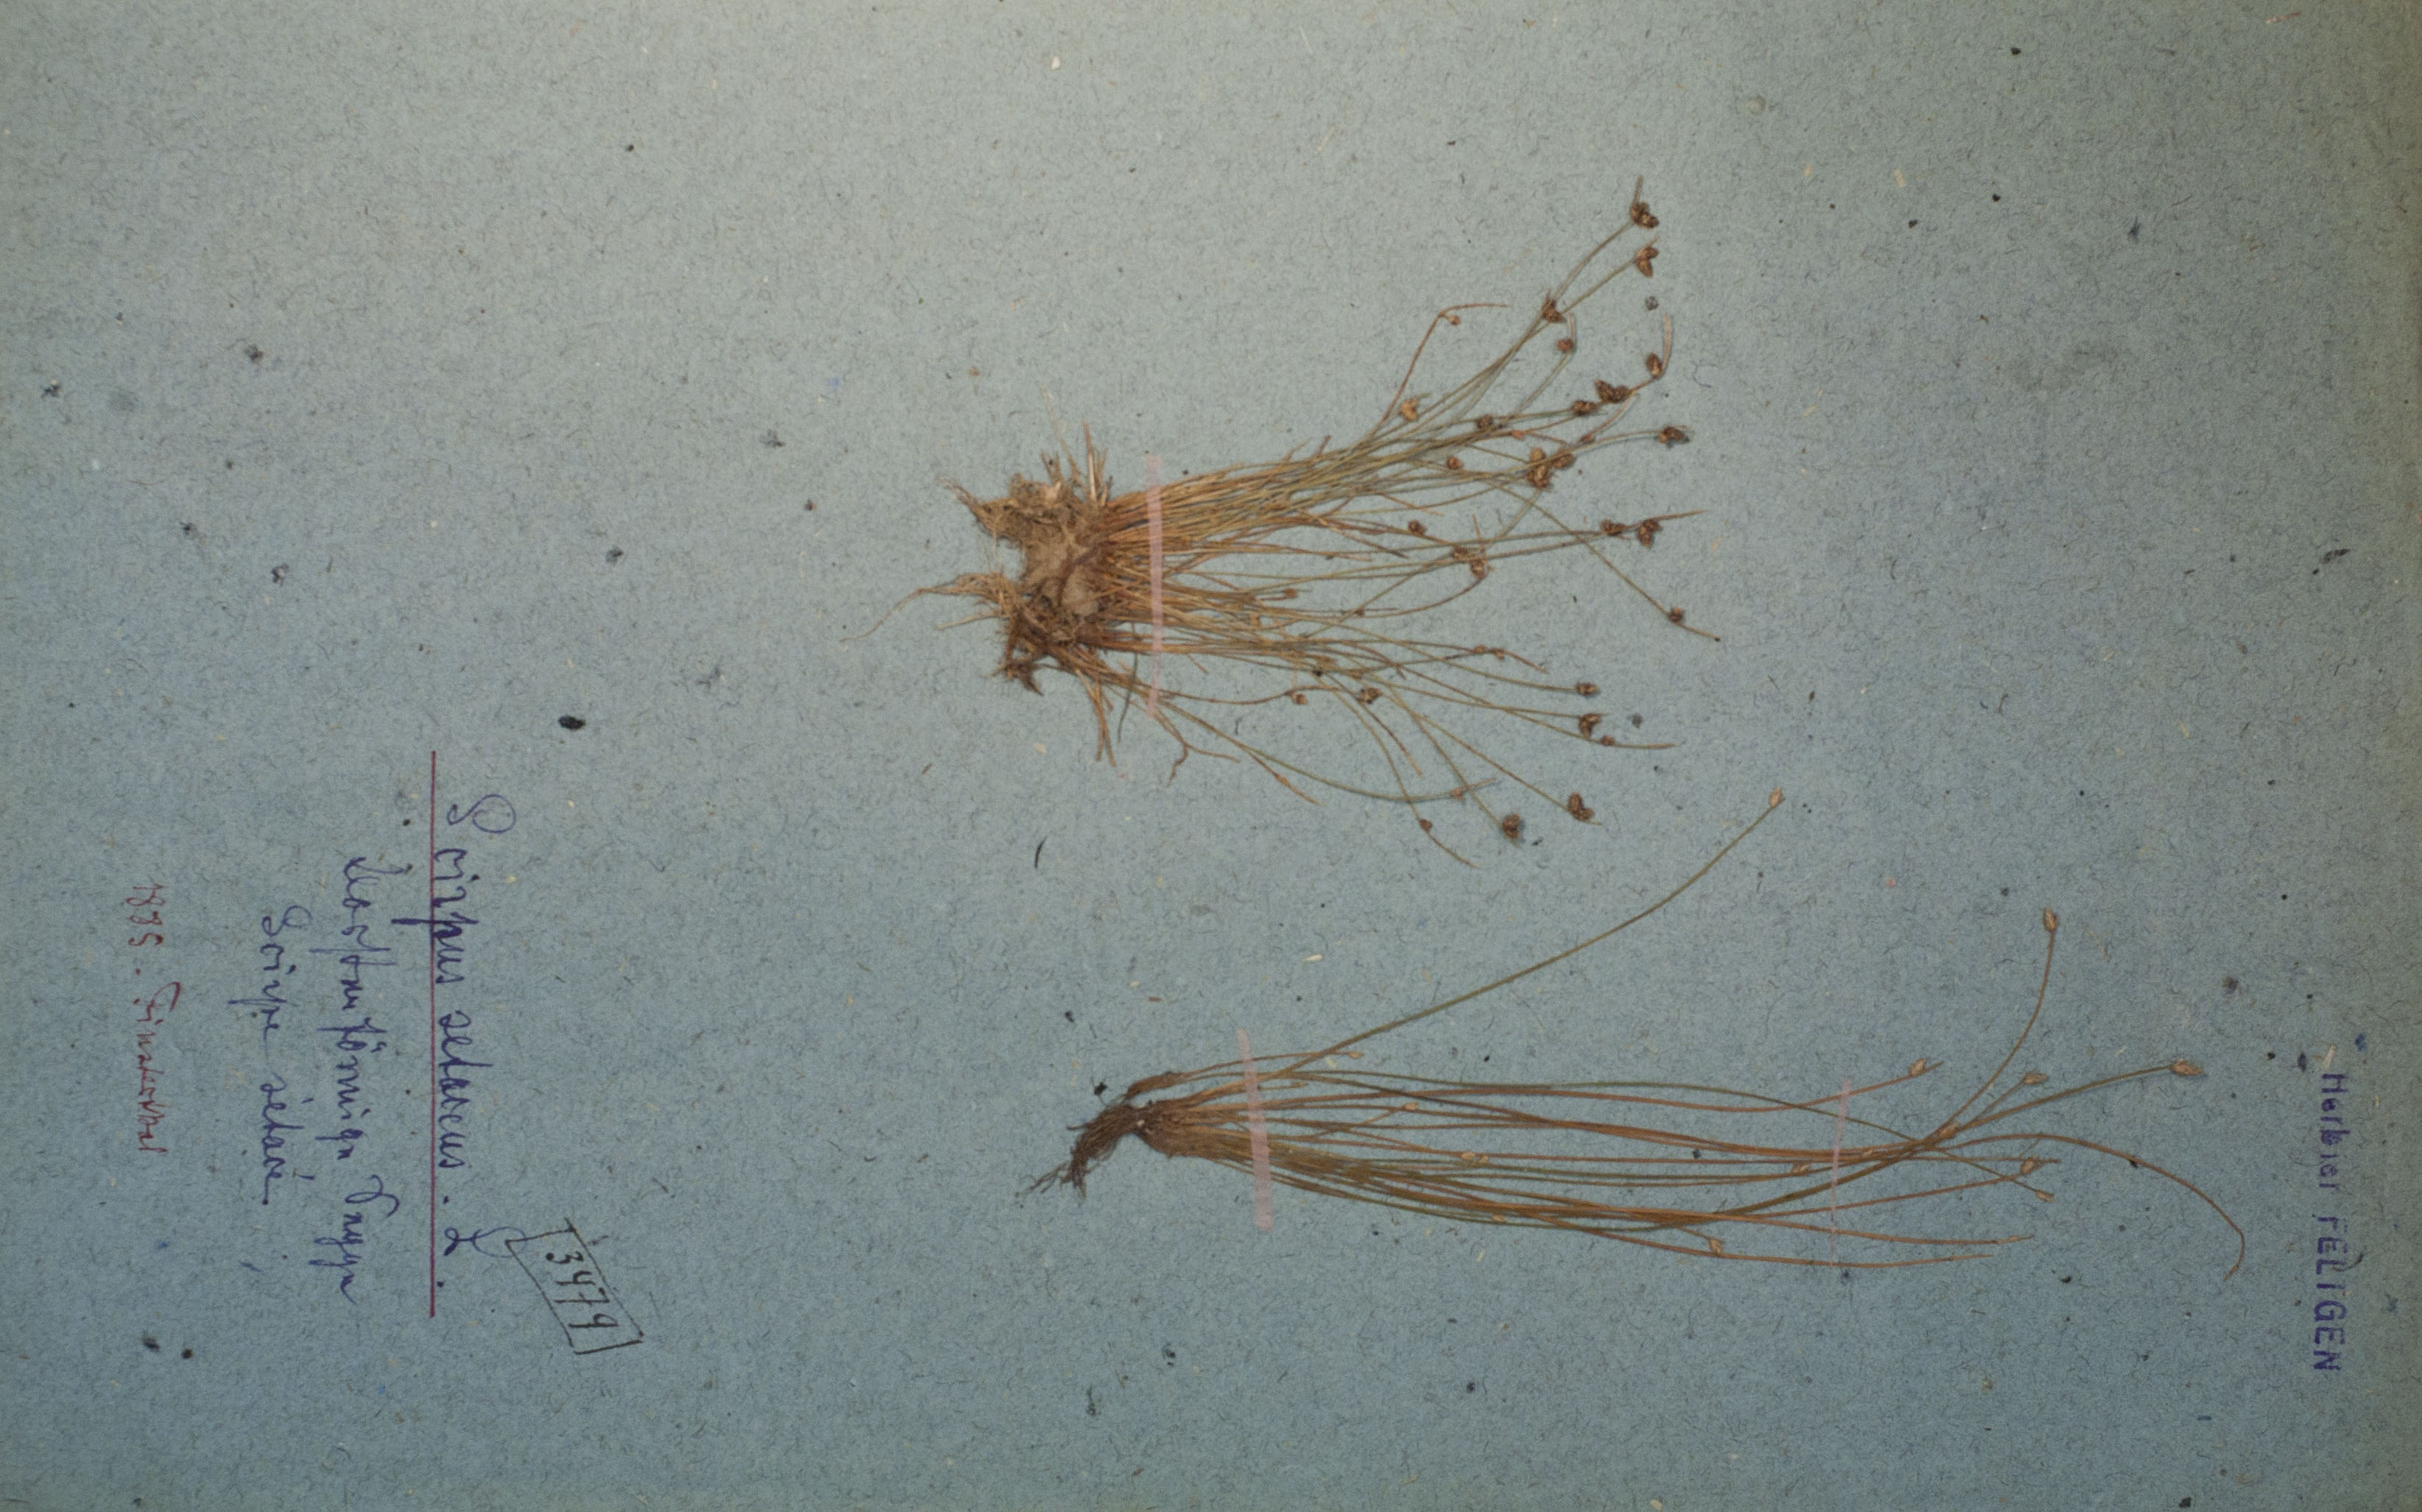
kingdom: Plantae
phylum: Tracheophyta
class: Liliopsida
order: Poales
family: Cyperaceae
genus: Isolepis
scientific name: Isolepis setacea
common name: Bristle club-rush
